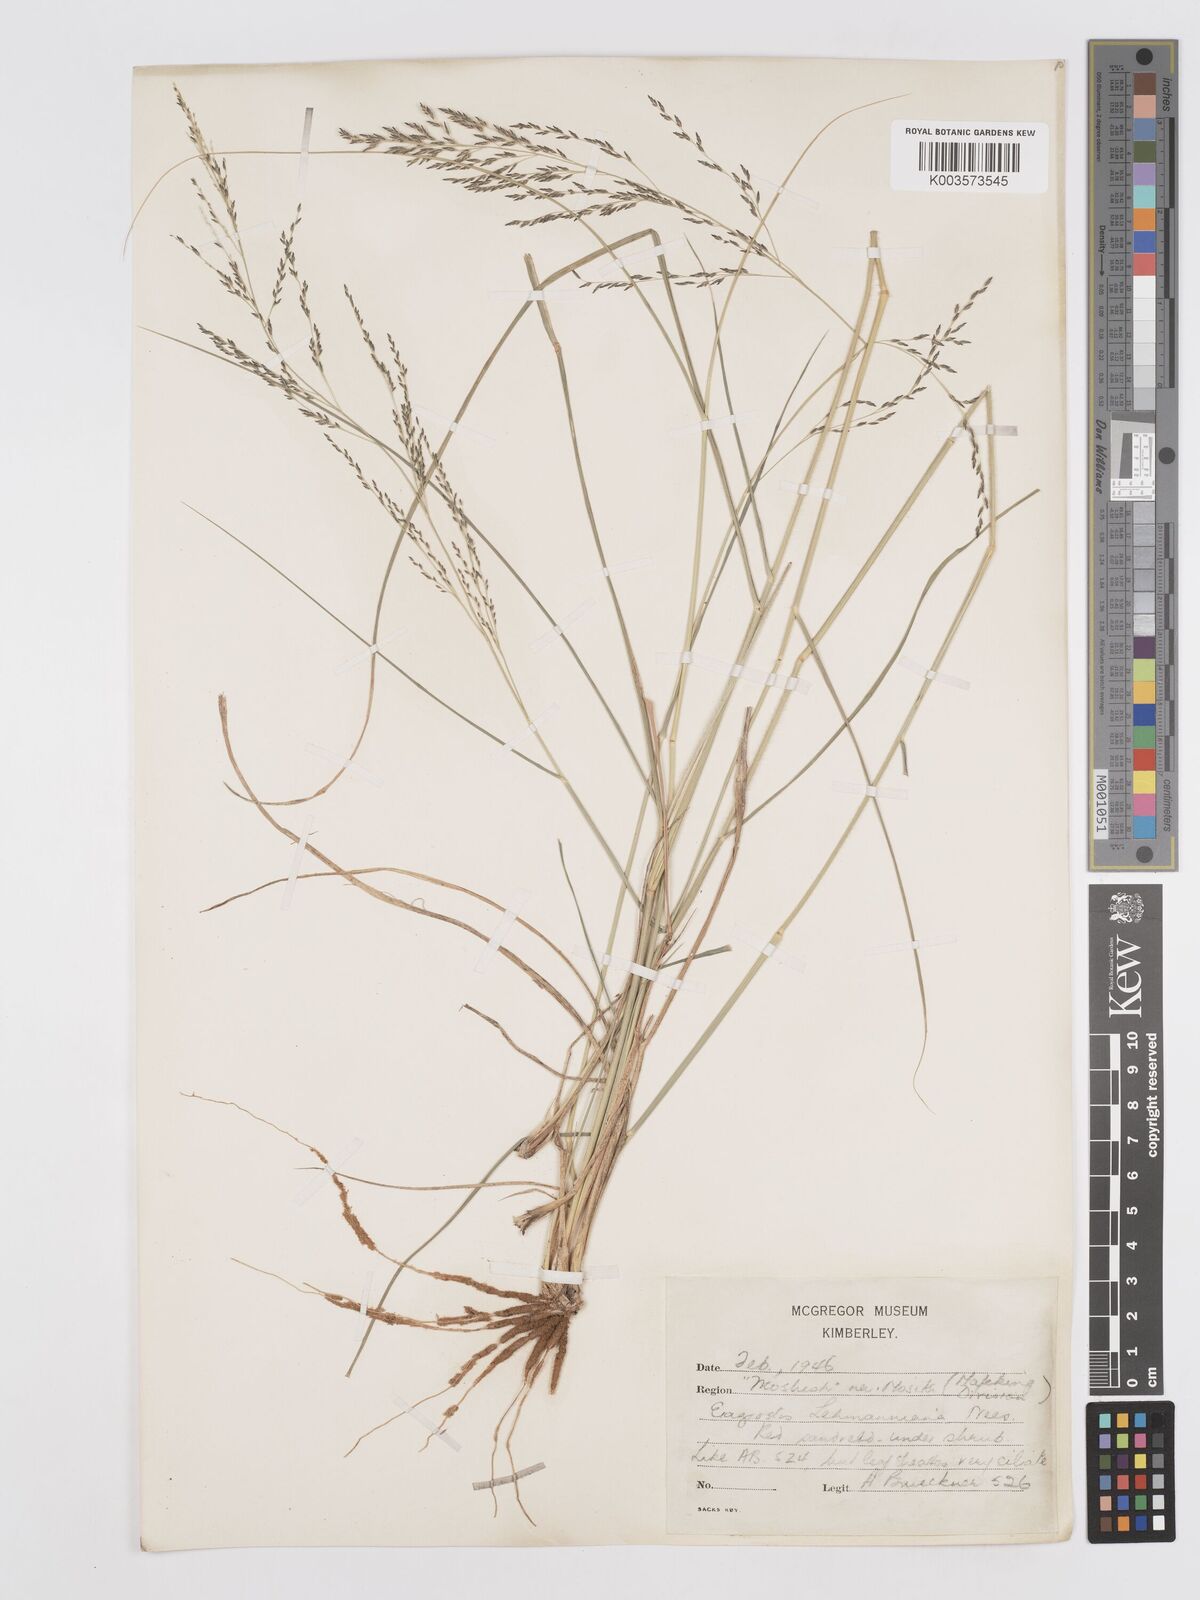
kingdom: Plantae
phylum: Tracheophyta
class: Liliopsida
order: Poales
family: Poaceae
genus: Eragrostis
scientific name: Eragrostis lehmanniana
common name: Lehmann lovegrass
